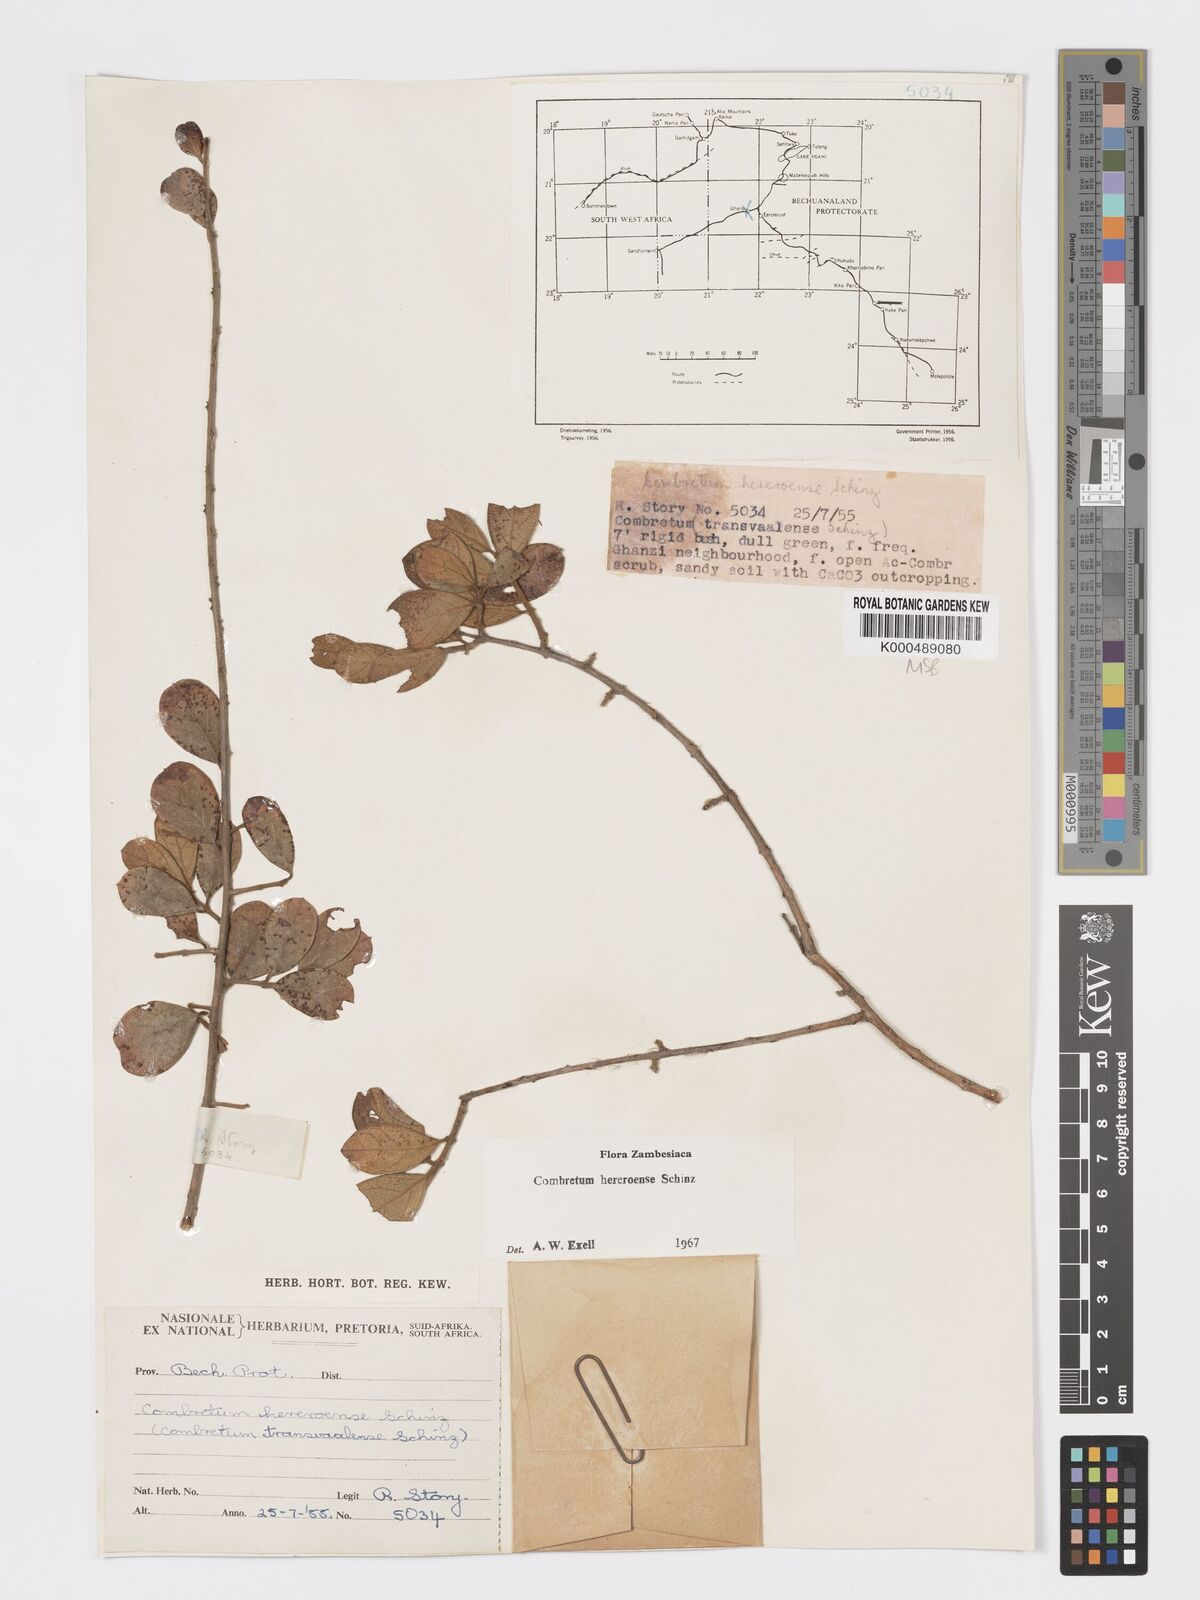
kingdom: Plantae
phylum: Tracheophyta
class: Magnoliopsida
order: Myrtales
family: Combretaceae
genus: Combretum
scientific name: Combretum hereroense
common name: Russet bushwillow
